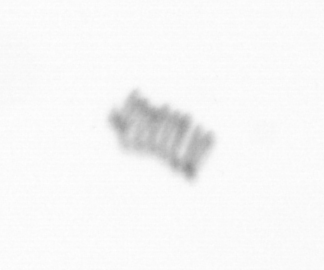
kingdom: Chromista
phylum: Ochrophyta
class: Bacillariophyceae
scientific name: Bacillariophyceae
